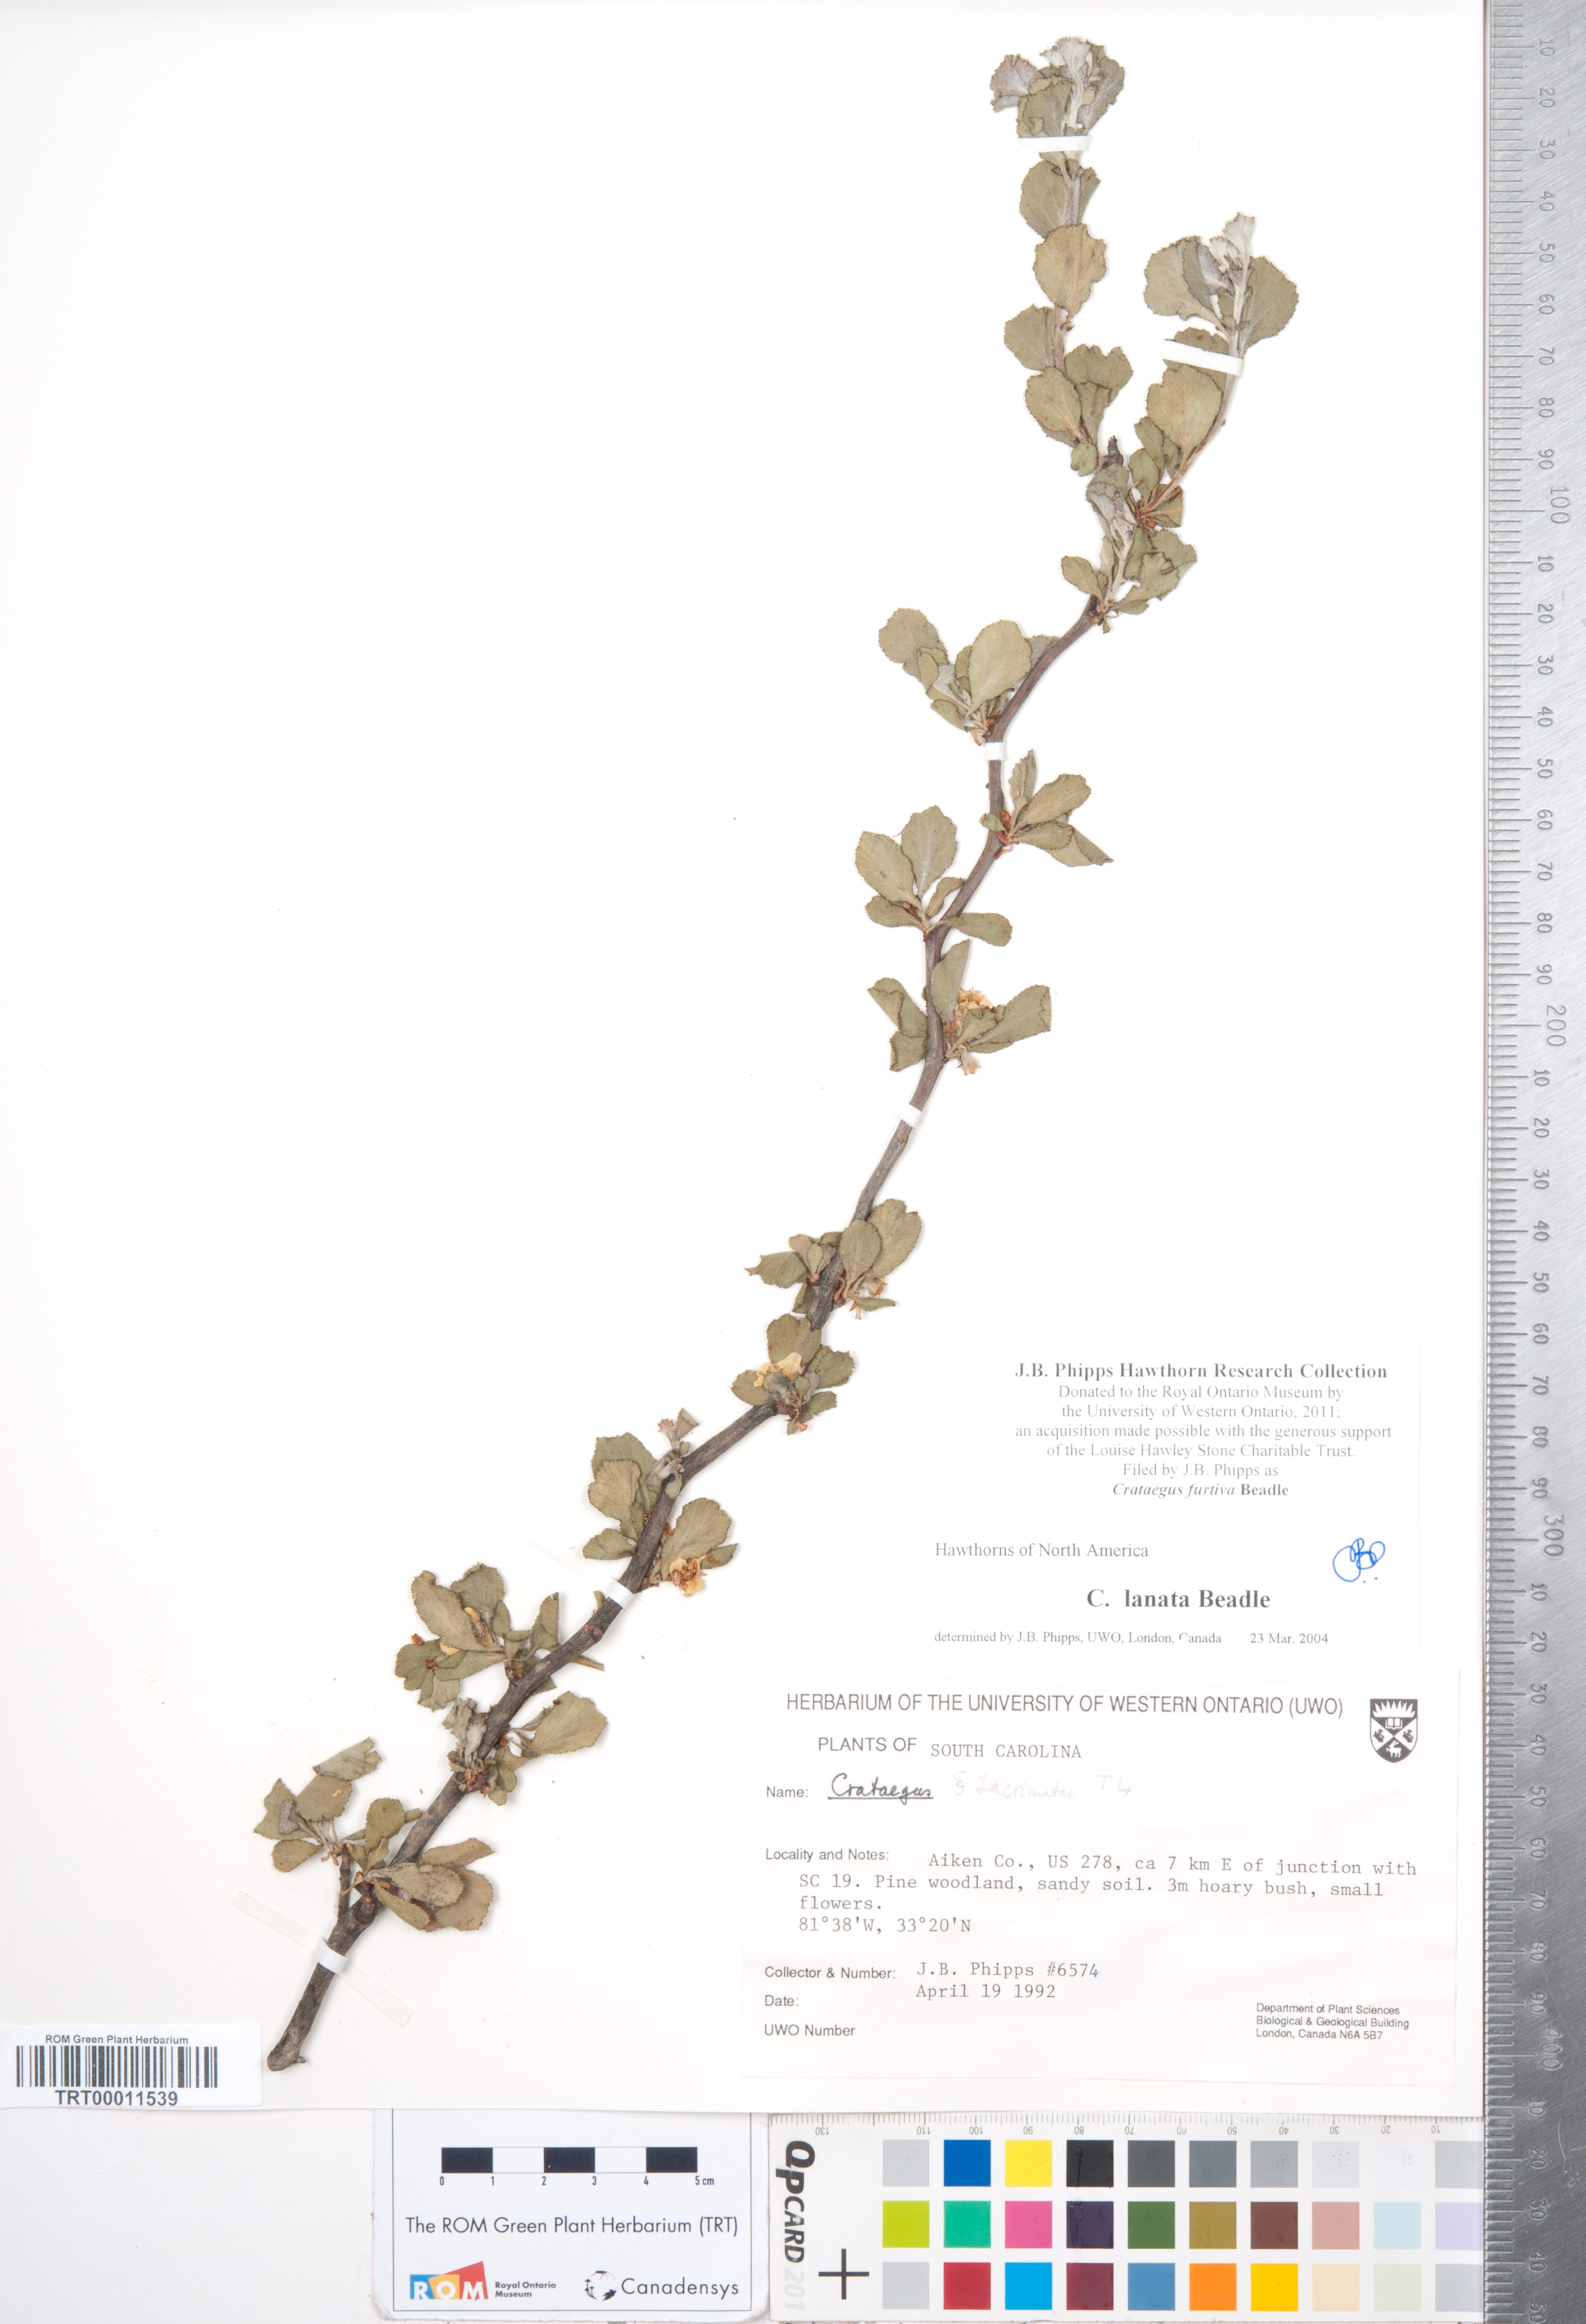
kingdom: Plantae
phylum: Tracheophyta
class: Magnoliopsida
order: Rosales
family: Rosaceae
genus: Crataegus
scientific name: Crataegus senta
